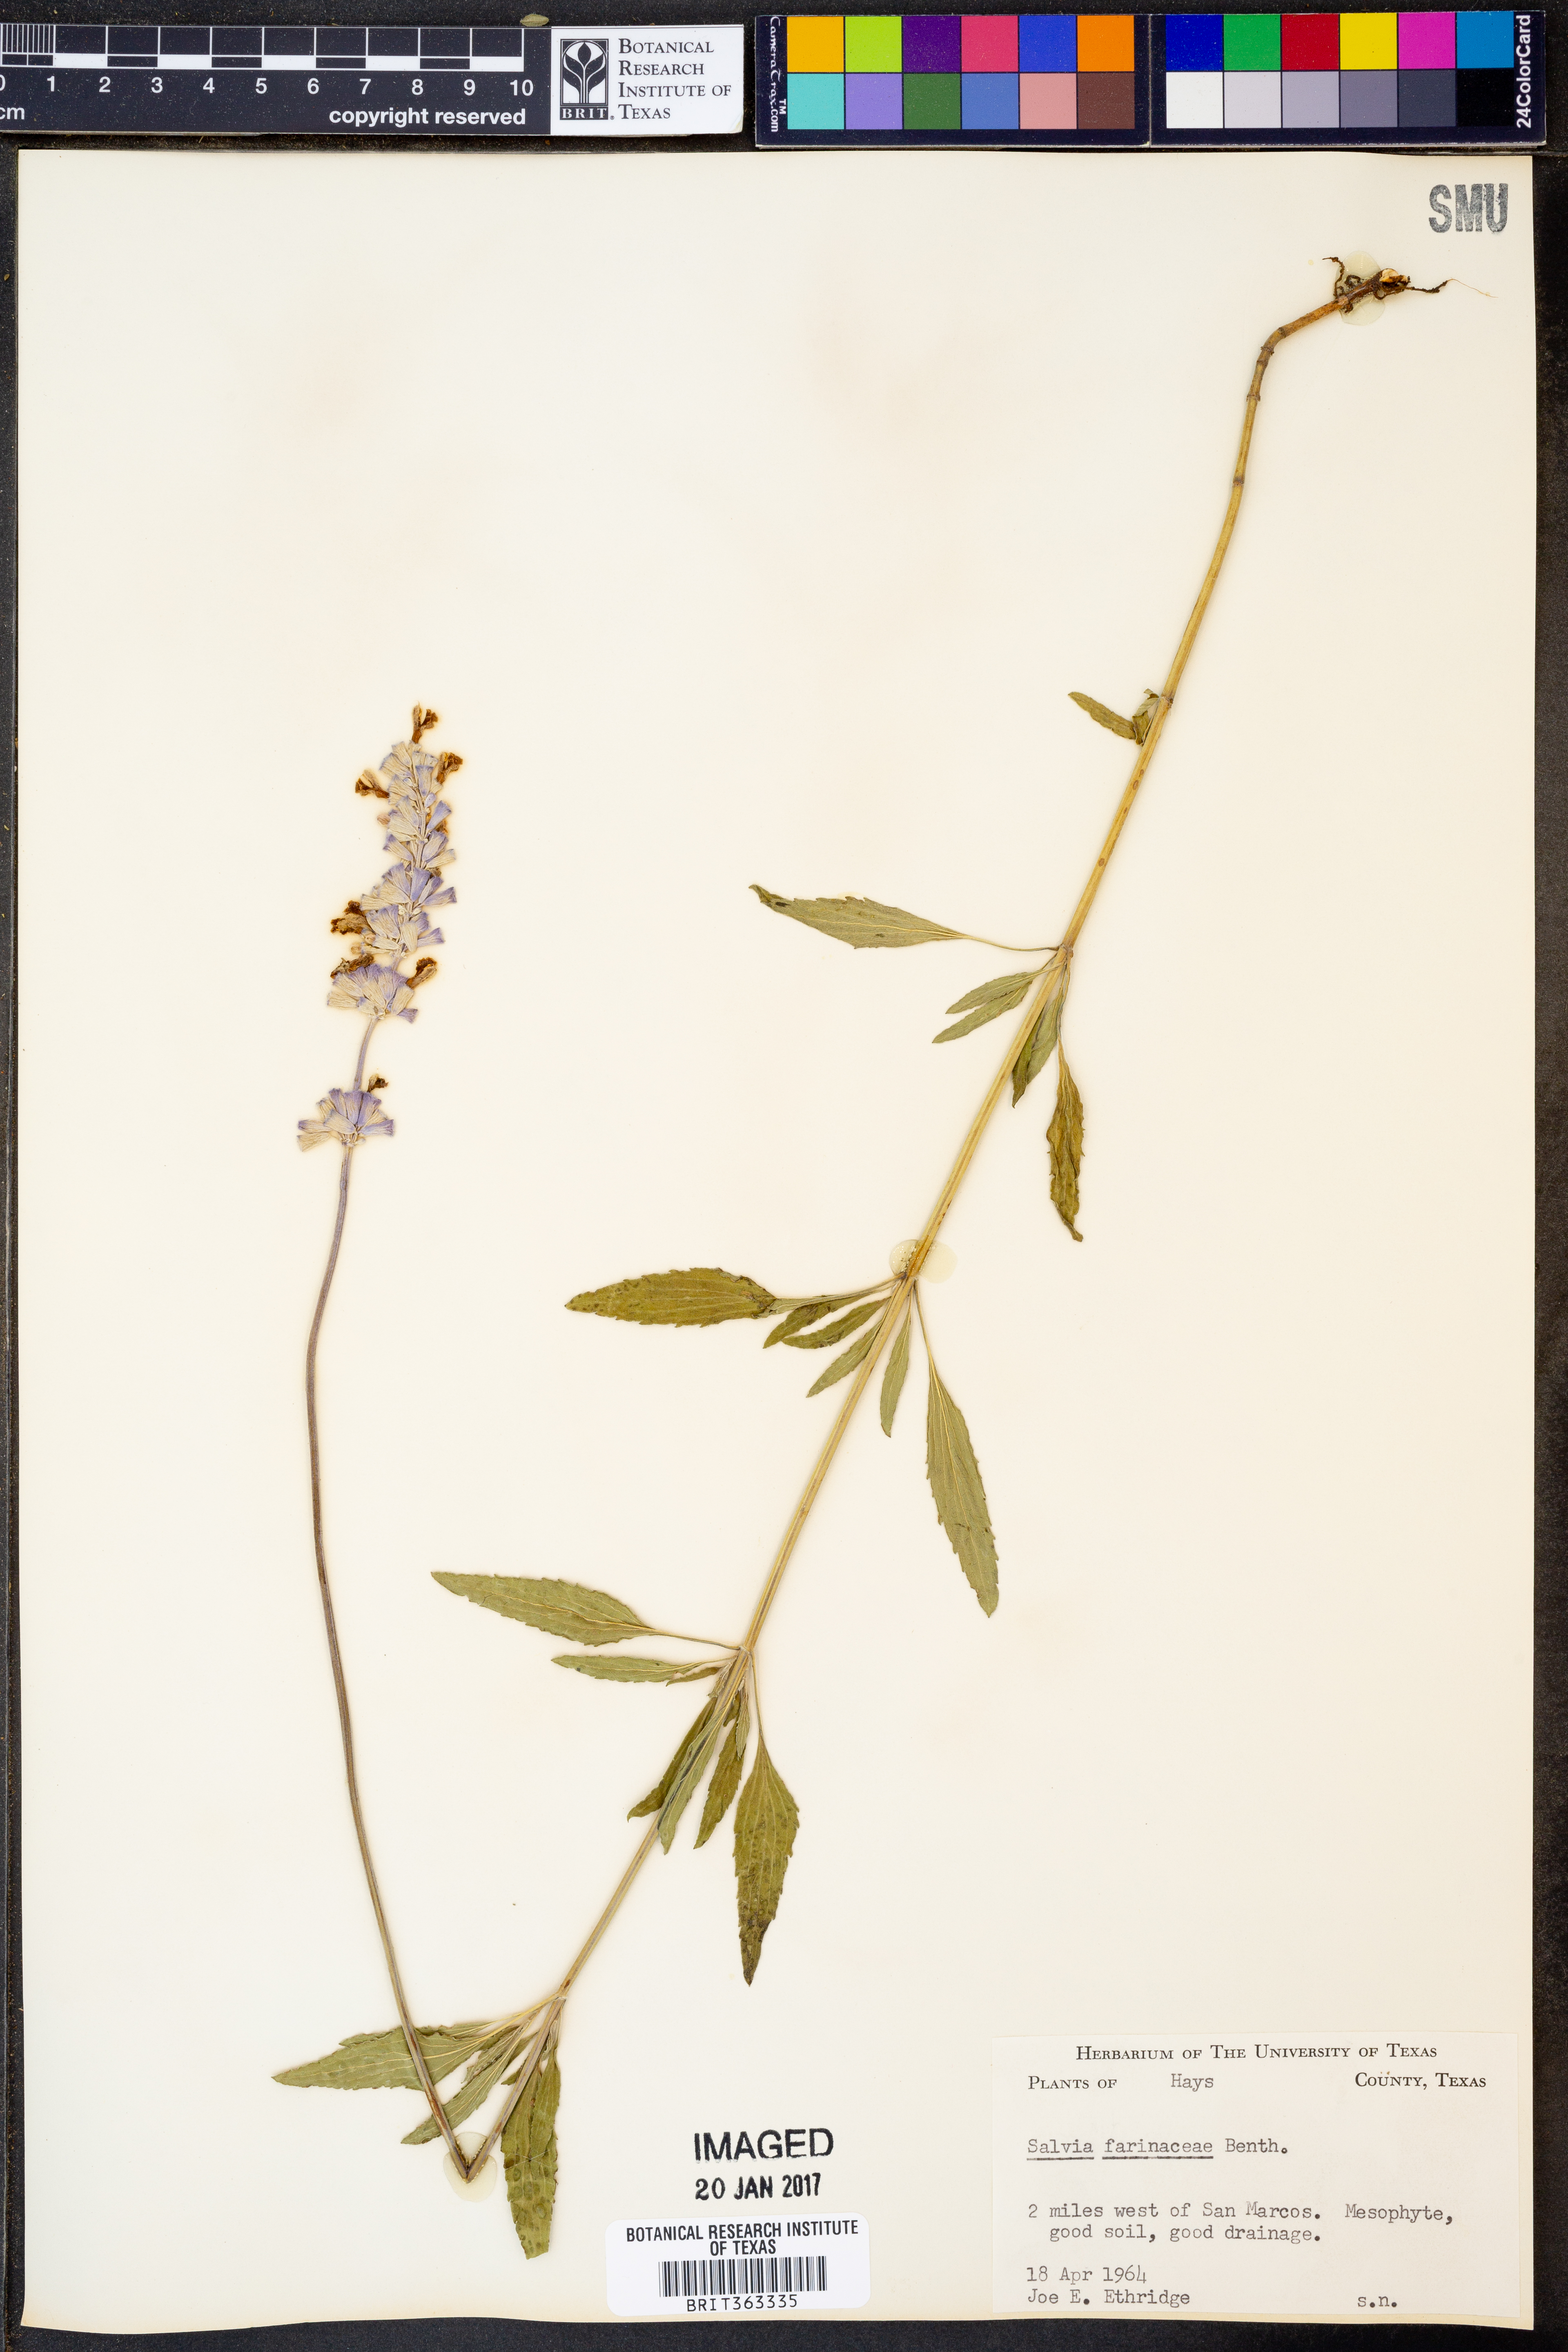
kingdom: Plantae
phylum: Tracheophyta
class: Magnoliopsida
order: Lamiales
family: Lamiaceae
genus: Salvia
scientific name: Salvia farinacea
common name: Mealy sage
